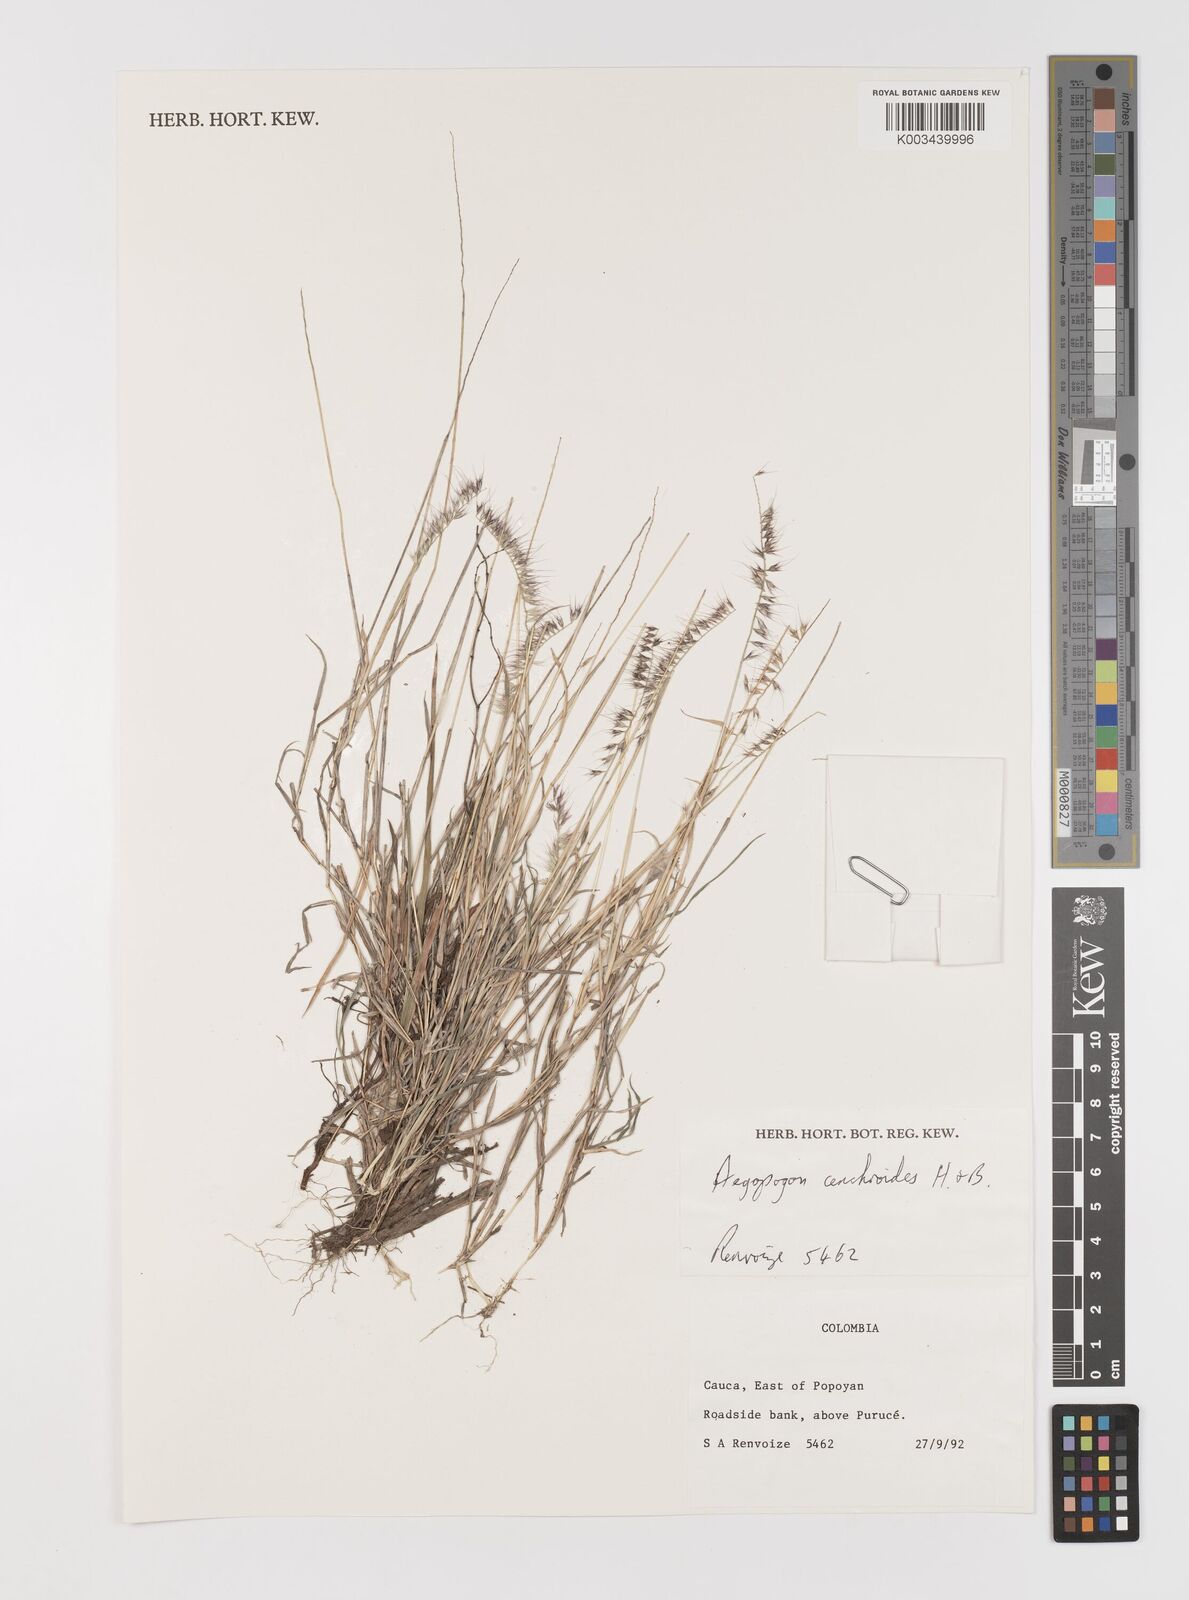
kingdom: Plantae
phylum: Tracheophyta
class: Liliopsida
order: Poales
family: Poaceae
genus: Muhlenbergia
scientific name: Muhlenbergia cenchroides
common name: Relaxgrass
